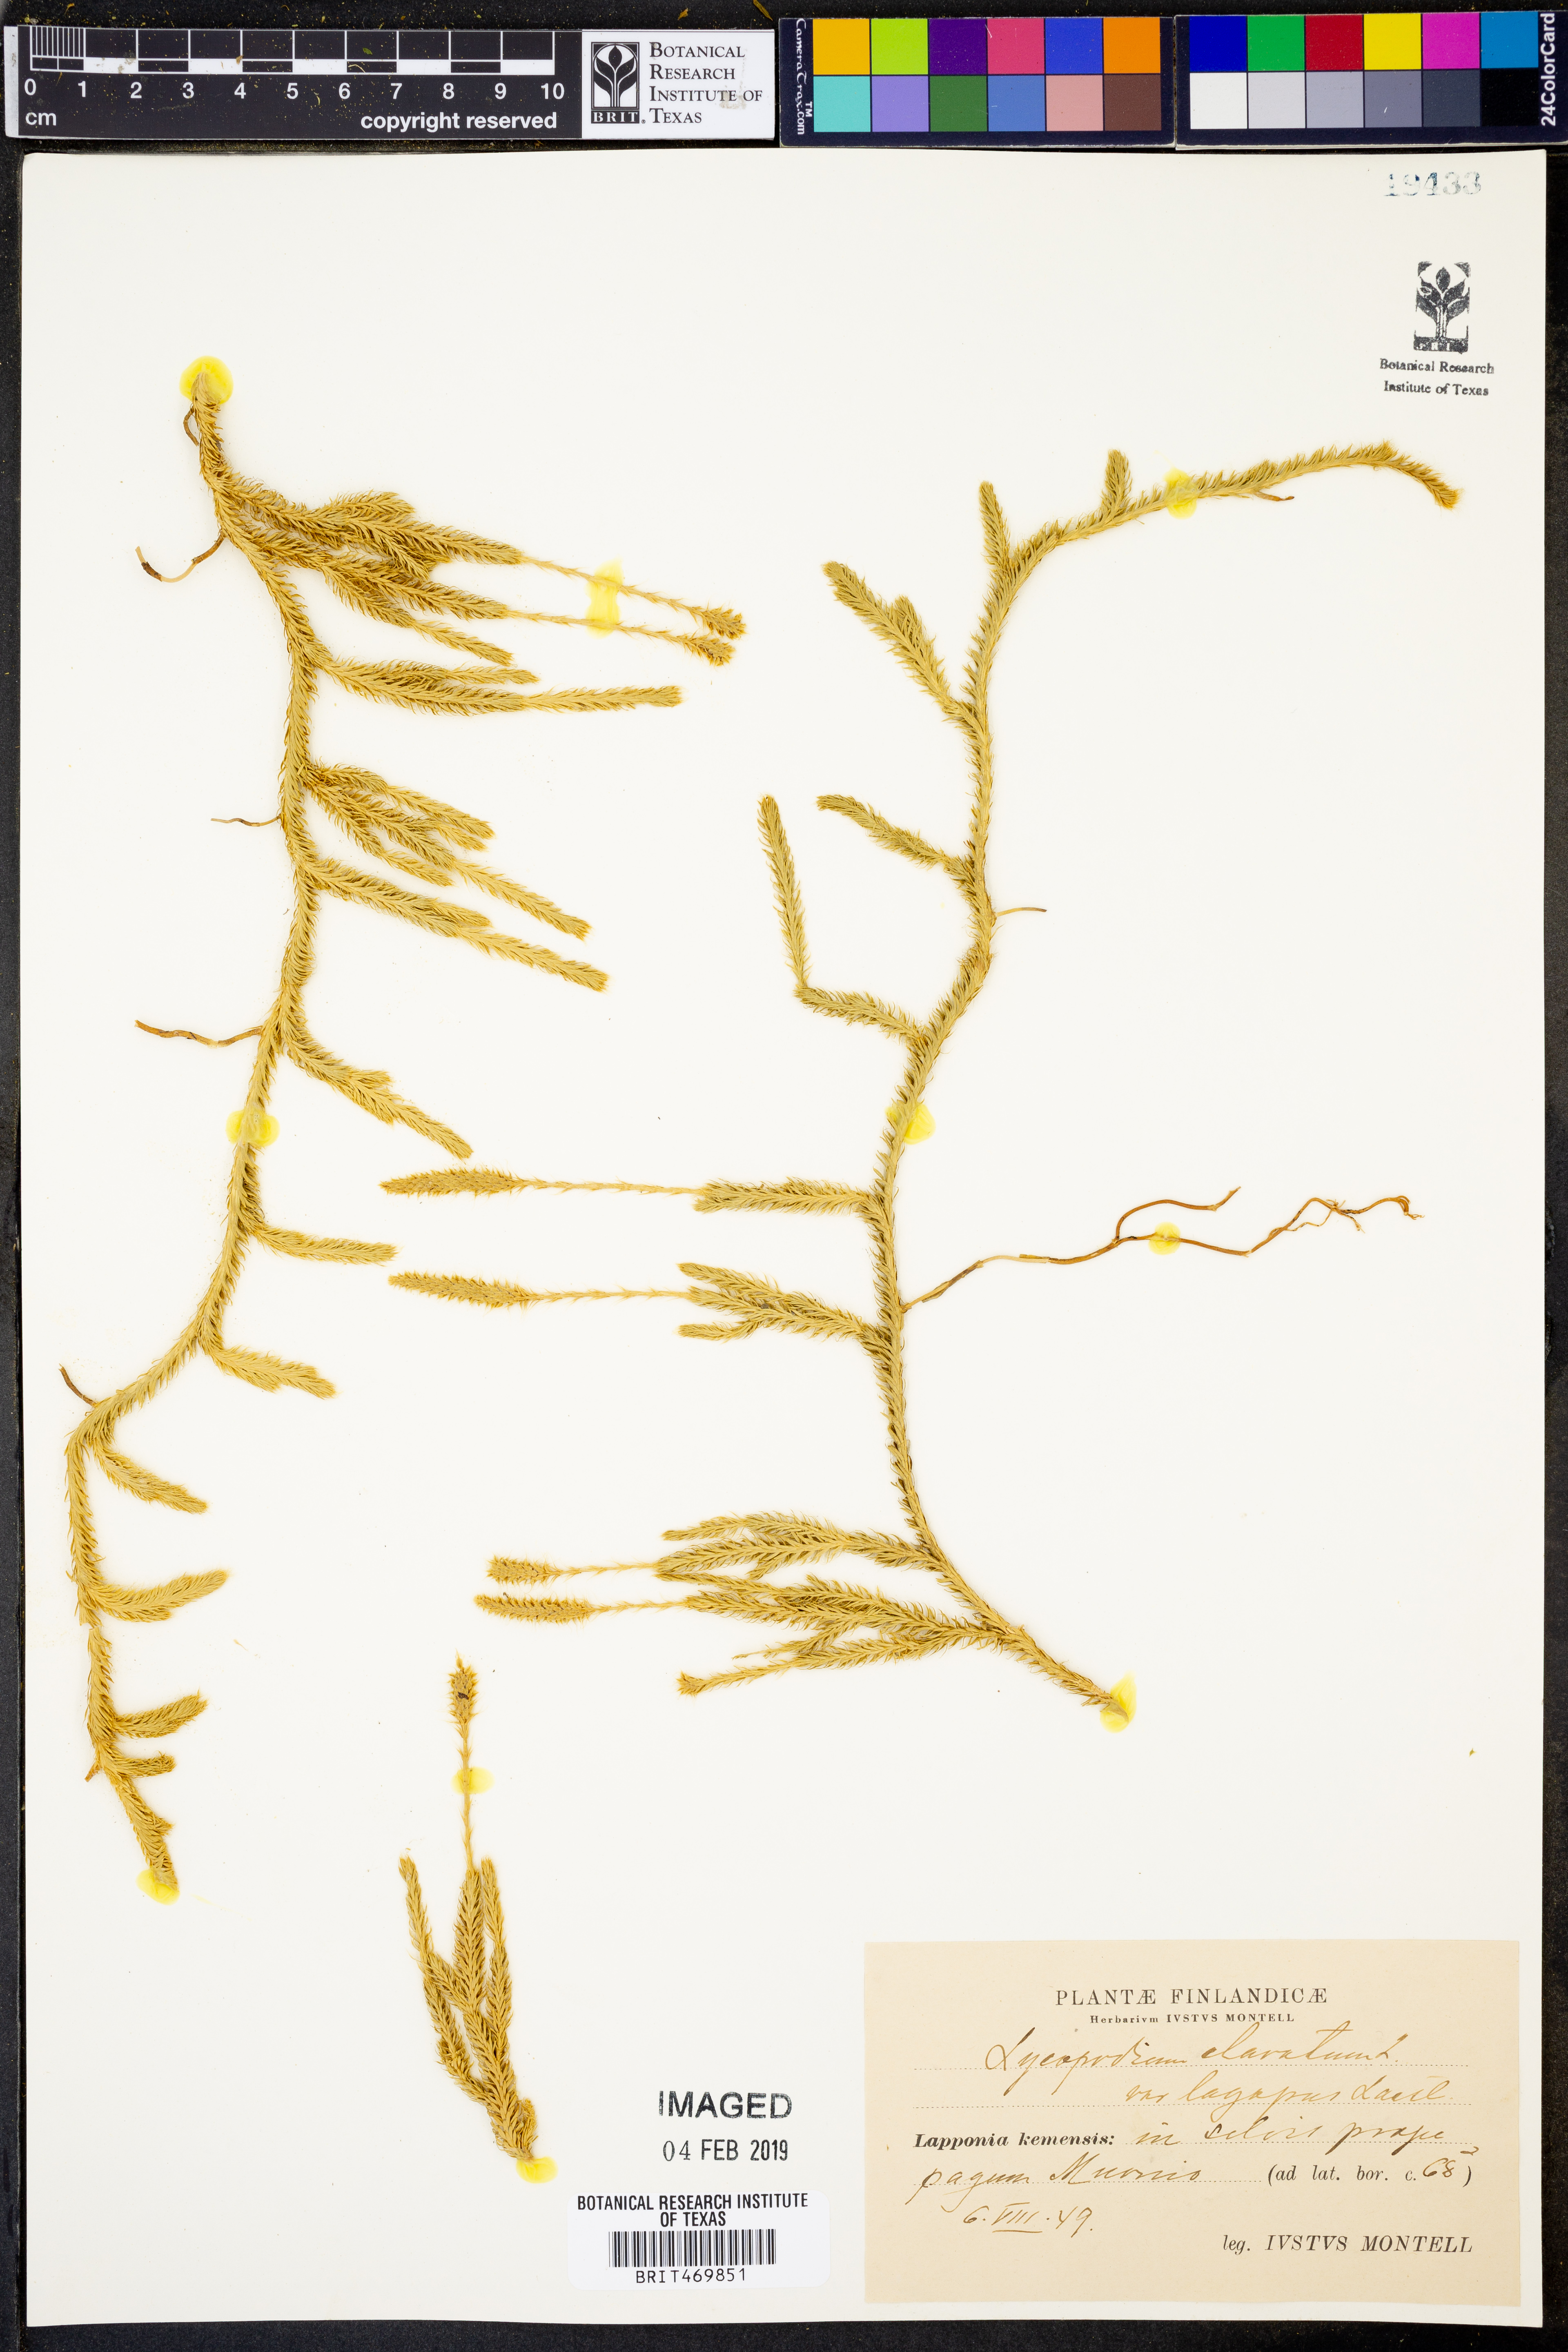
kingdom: Plantae
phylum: Tracheophyta
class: Lycopodiopsida
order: Lycopodiales
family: Lycopodiaceae
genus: Lycopodium
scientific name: Lycopodium lagopus
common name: One-cone clubmoss
